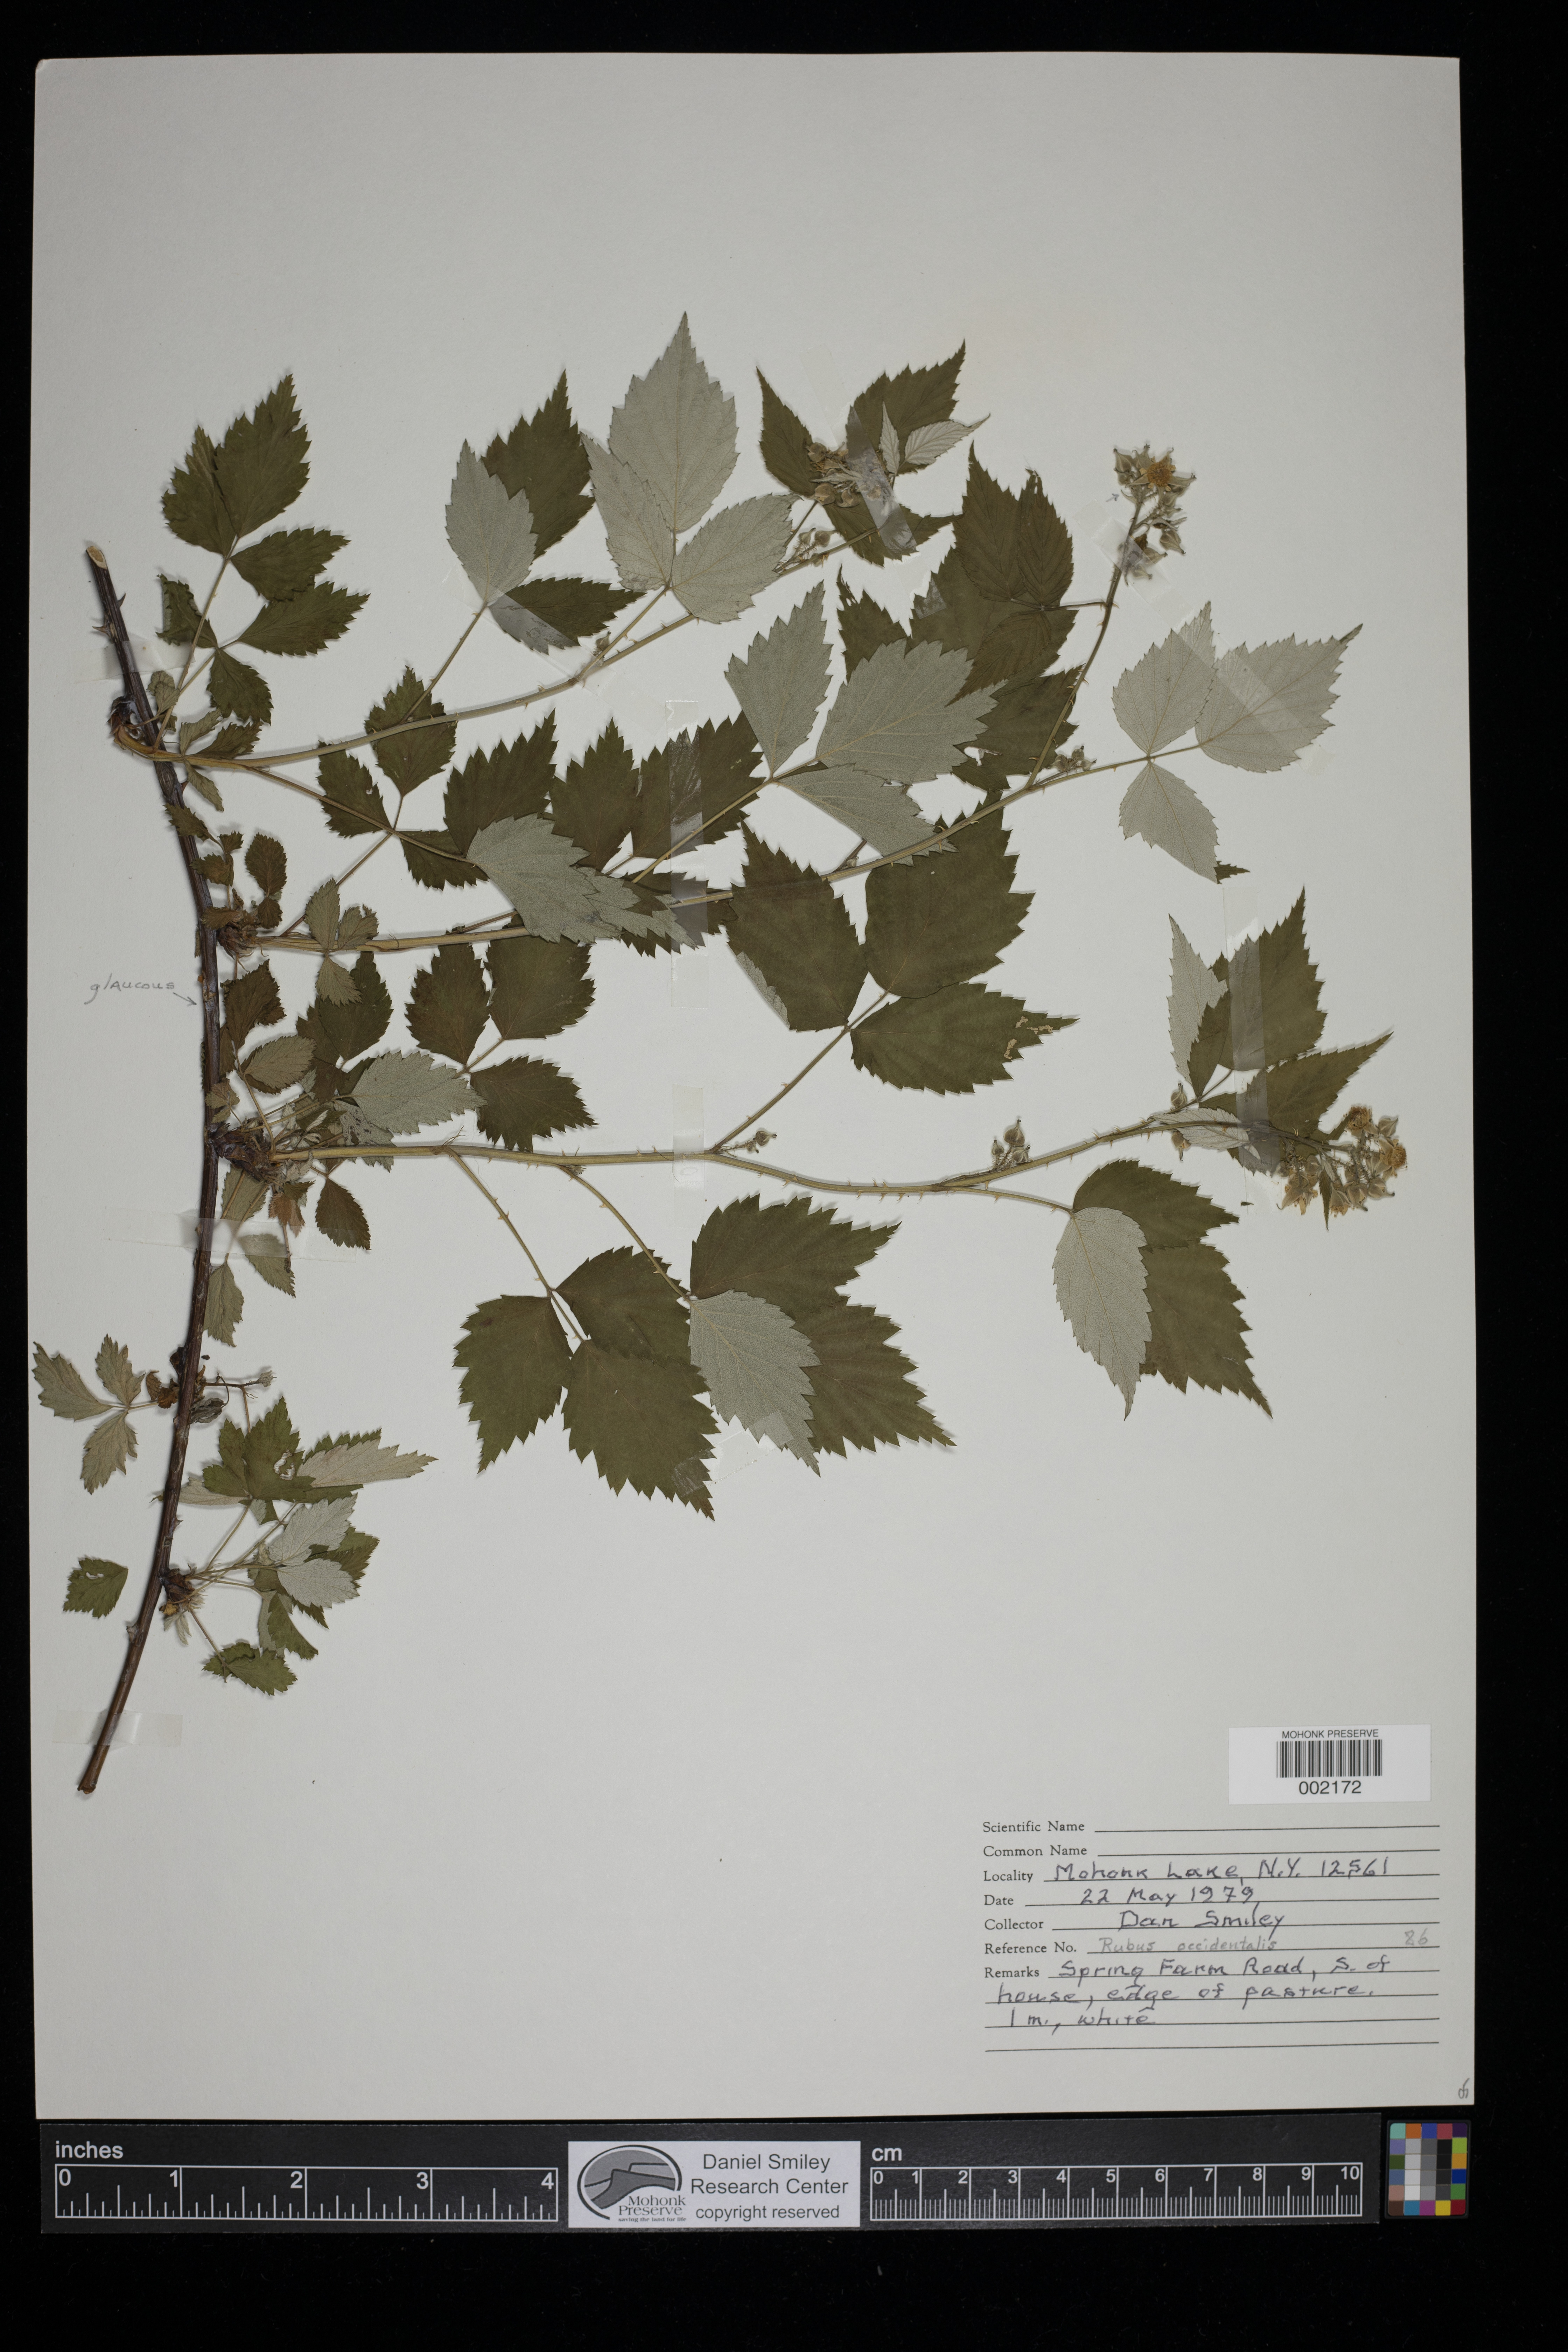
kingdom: Plantae
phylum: Tracheophyta
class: Magnoliopsida
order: Rosales
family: Rosaceae
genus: Rubus
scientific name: Rubus occidentalis
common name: Black raspberry
